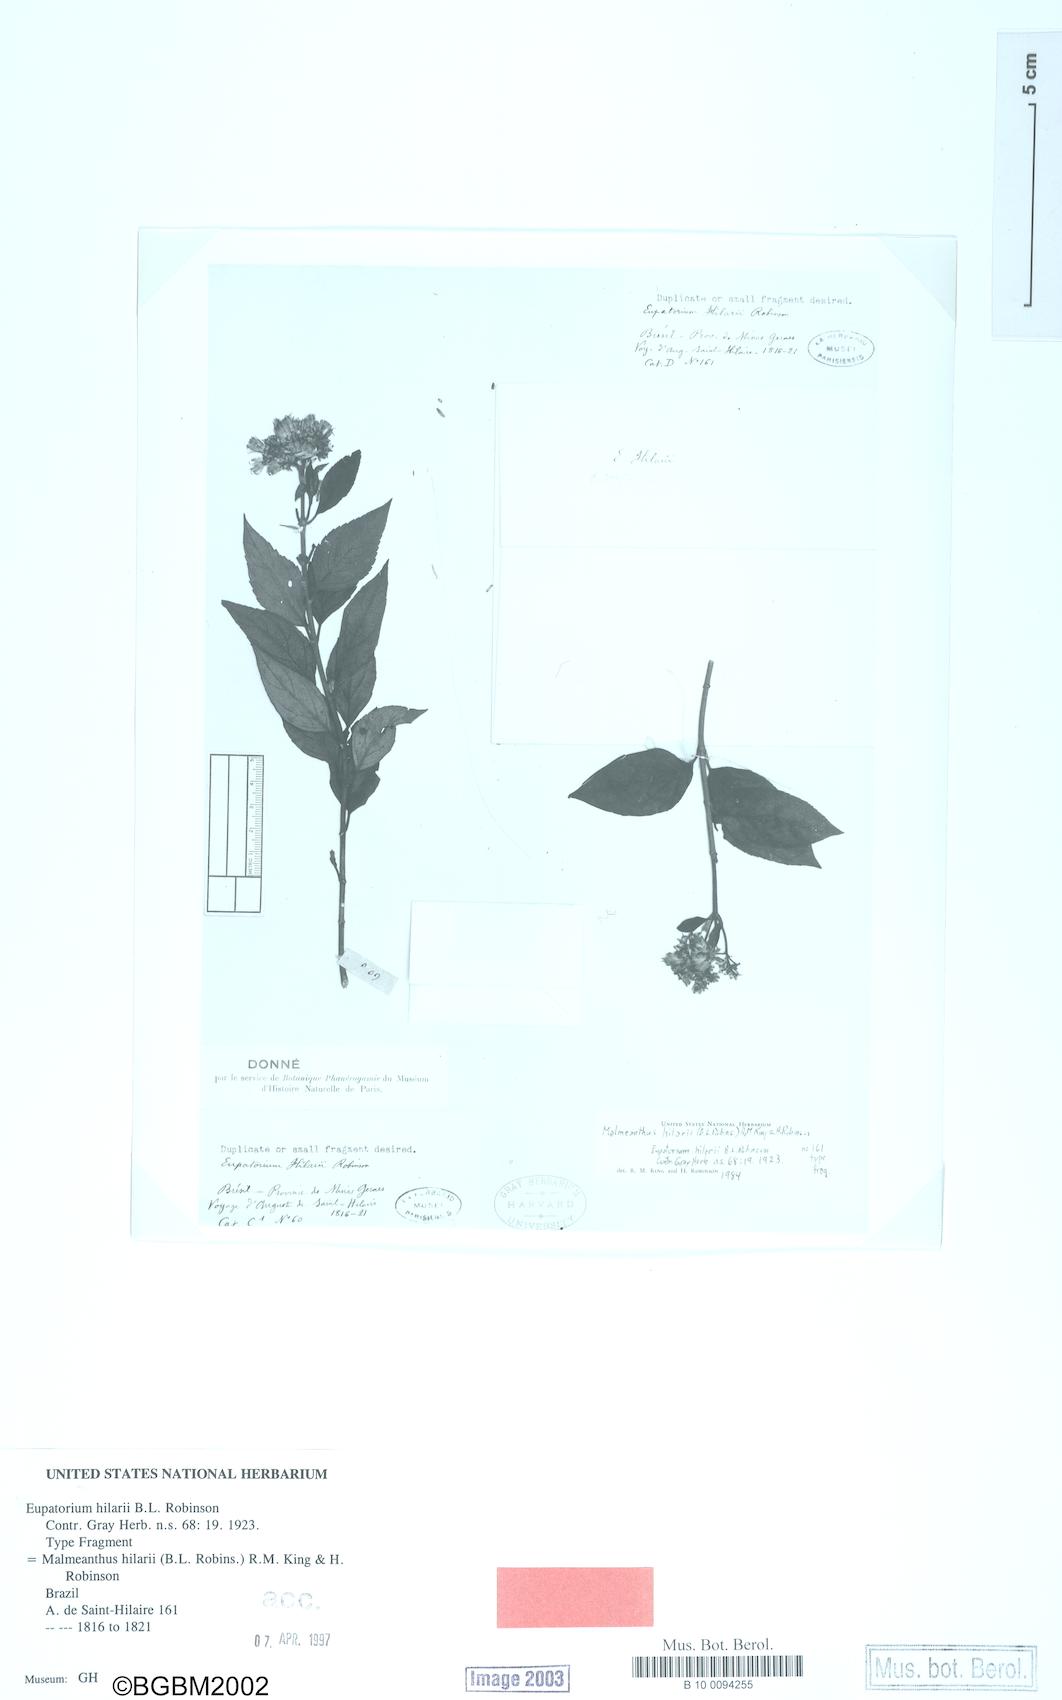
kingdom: Plantae
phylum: Tracheophyta
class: Magnoliopsida
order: Asterales
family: Asteraceae
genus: Malmeanthus
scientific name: Malmeanthus hilarii
